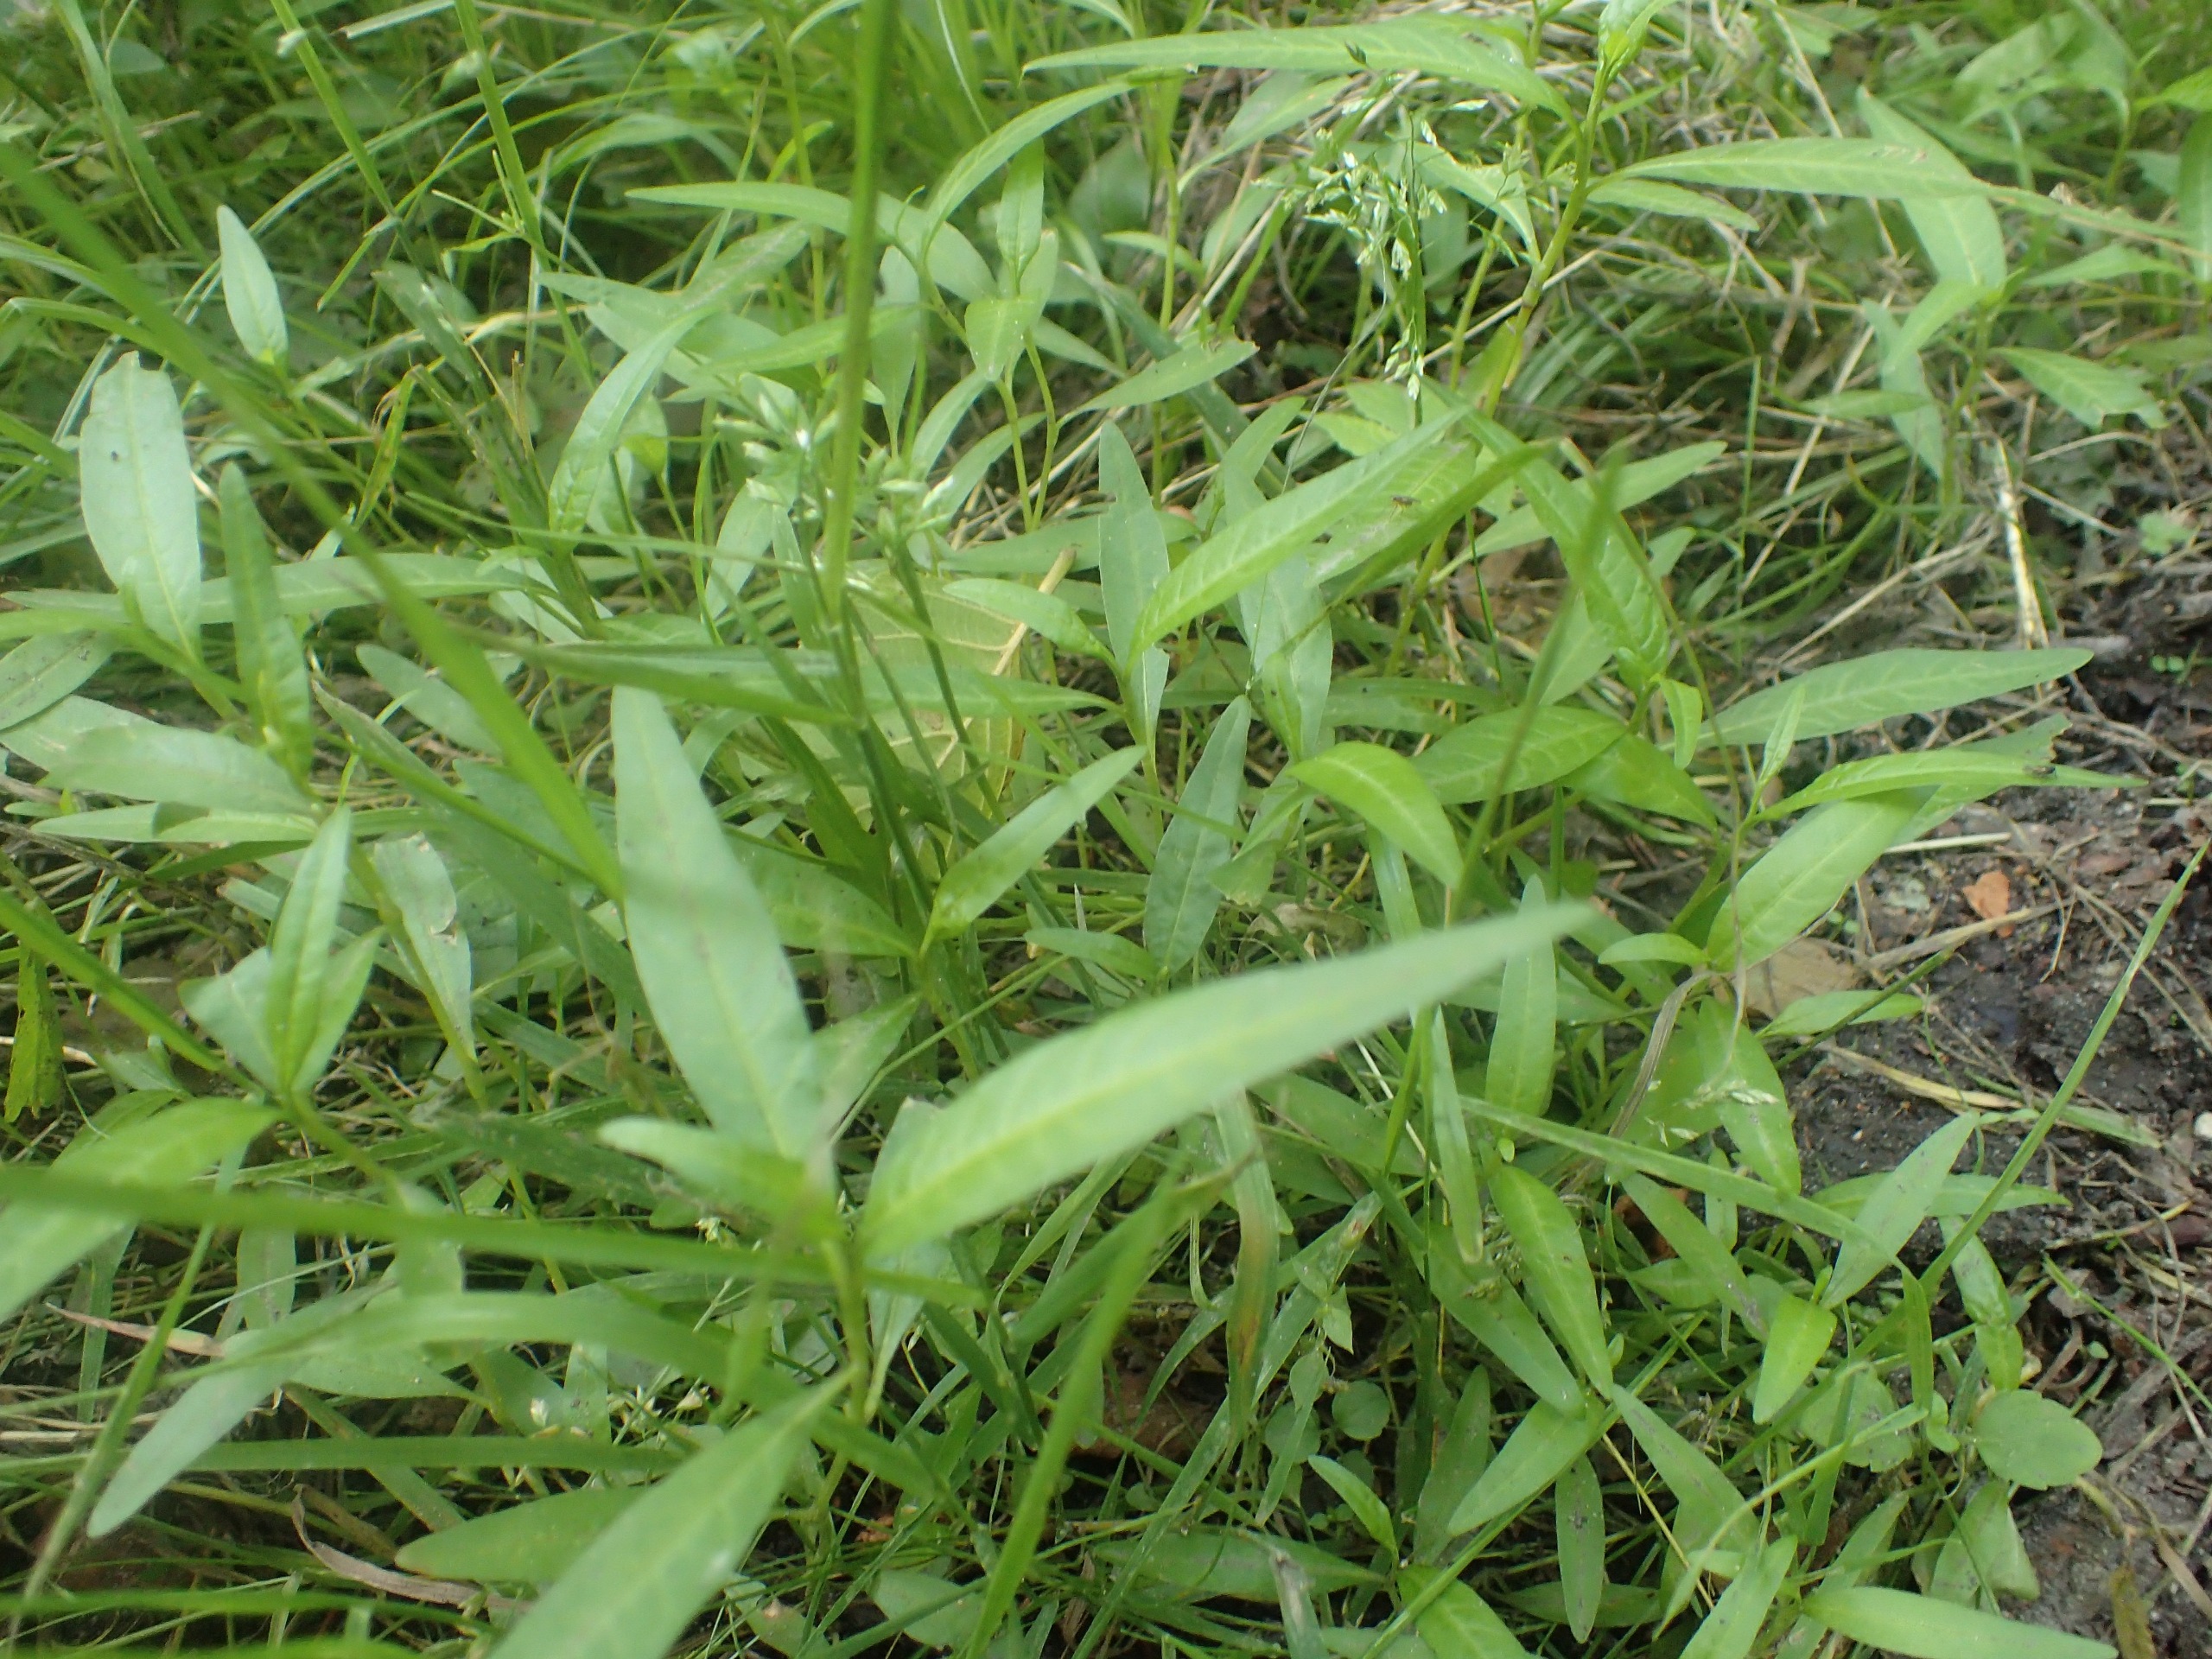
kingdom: Plantae
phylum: Tracheophyta
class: Magnoliopsida
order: Caryophyllales
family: Polygonaceae
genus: Persicaria
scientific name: Persicaria hydropiper
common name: Bidende pileurt
